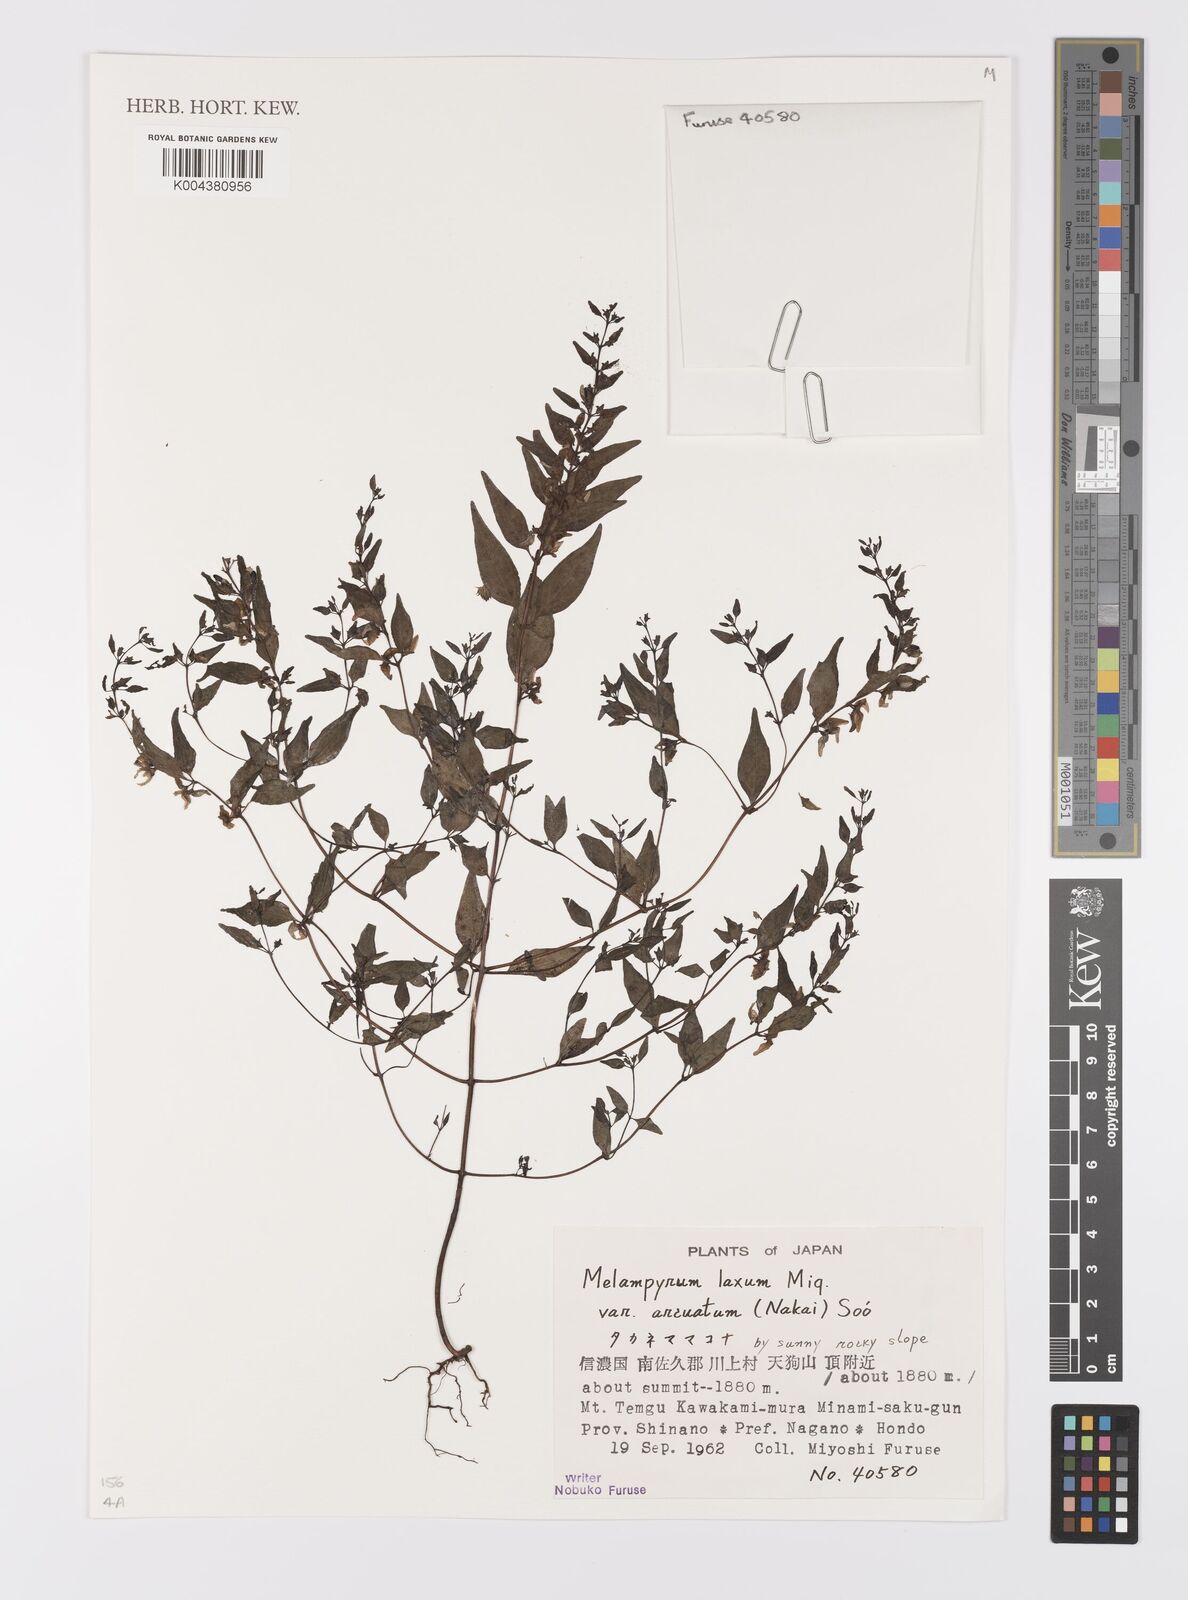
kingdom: Plantae
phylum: Tracheophyta
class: Magnoliopsida
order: Lamiales
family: Orobanchaceae
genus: Melampyrum
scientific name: Melampyrum laxum
